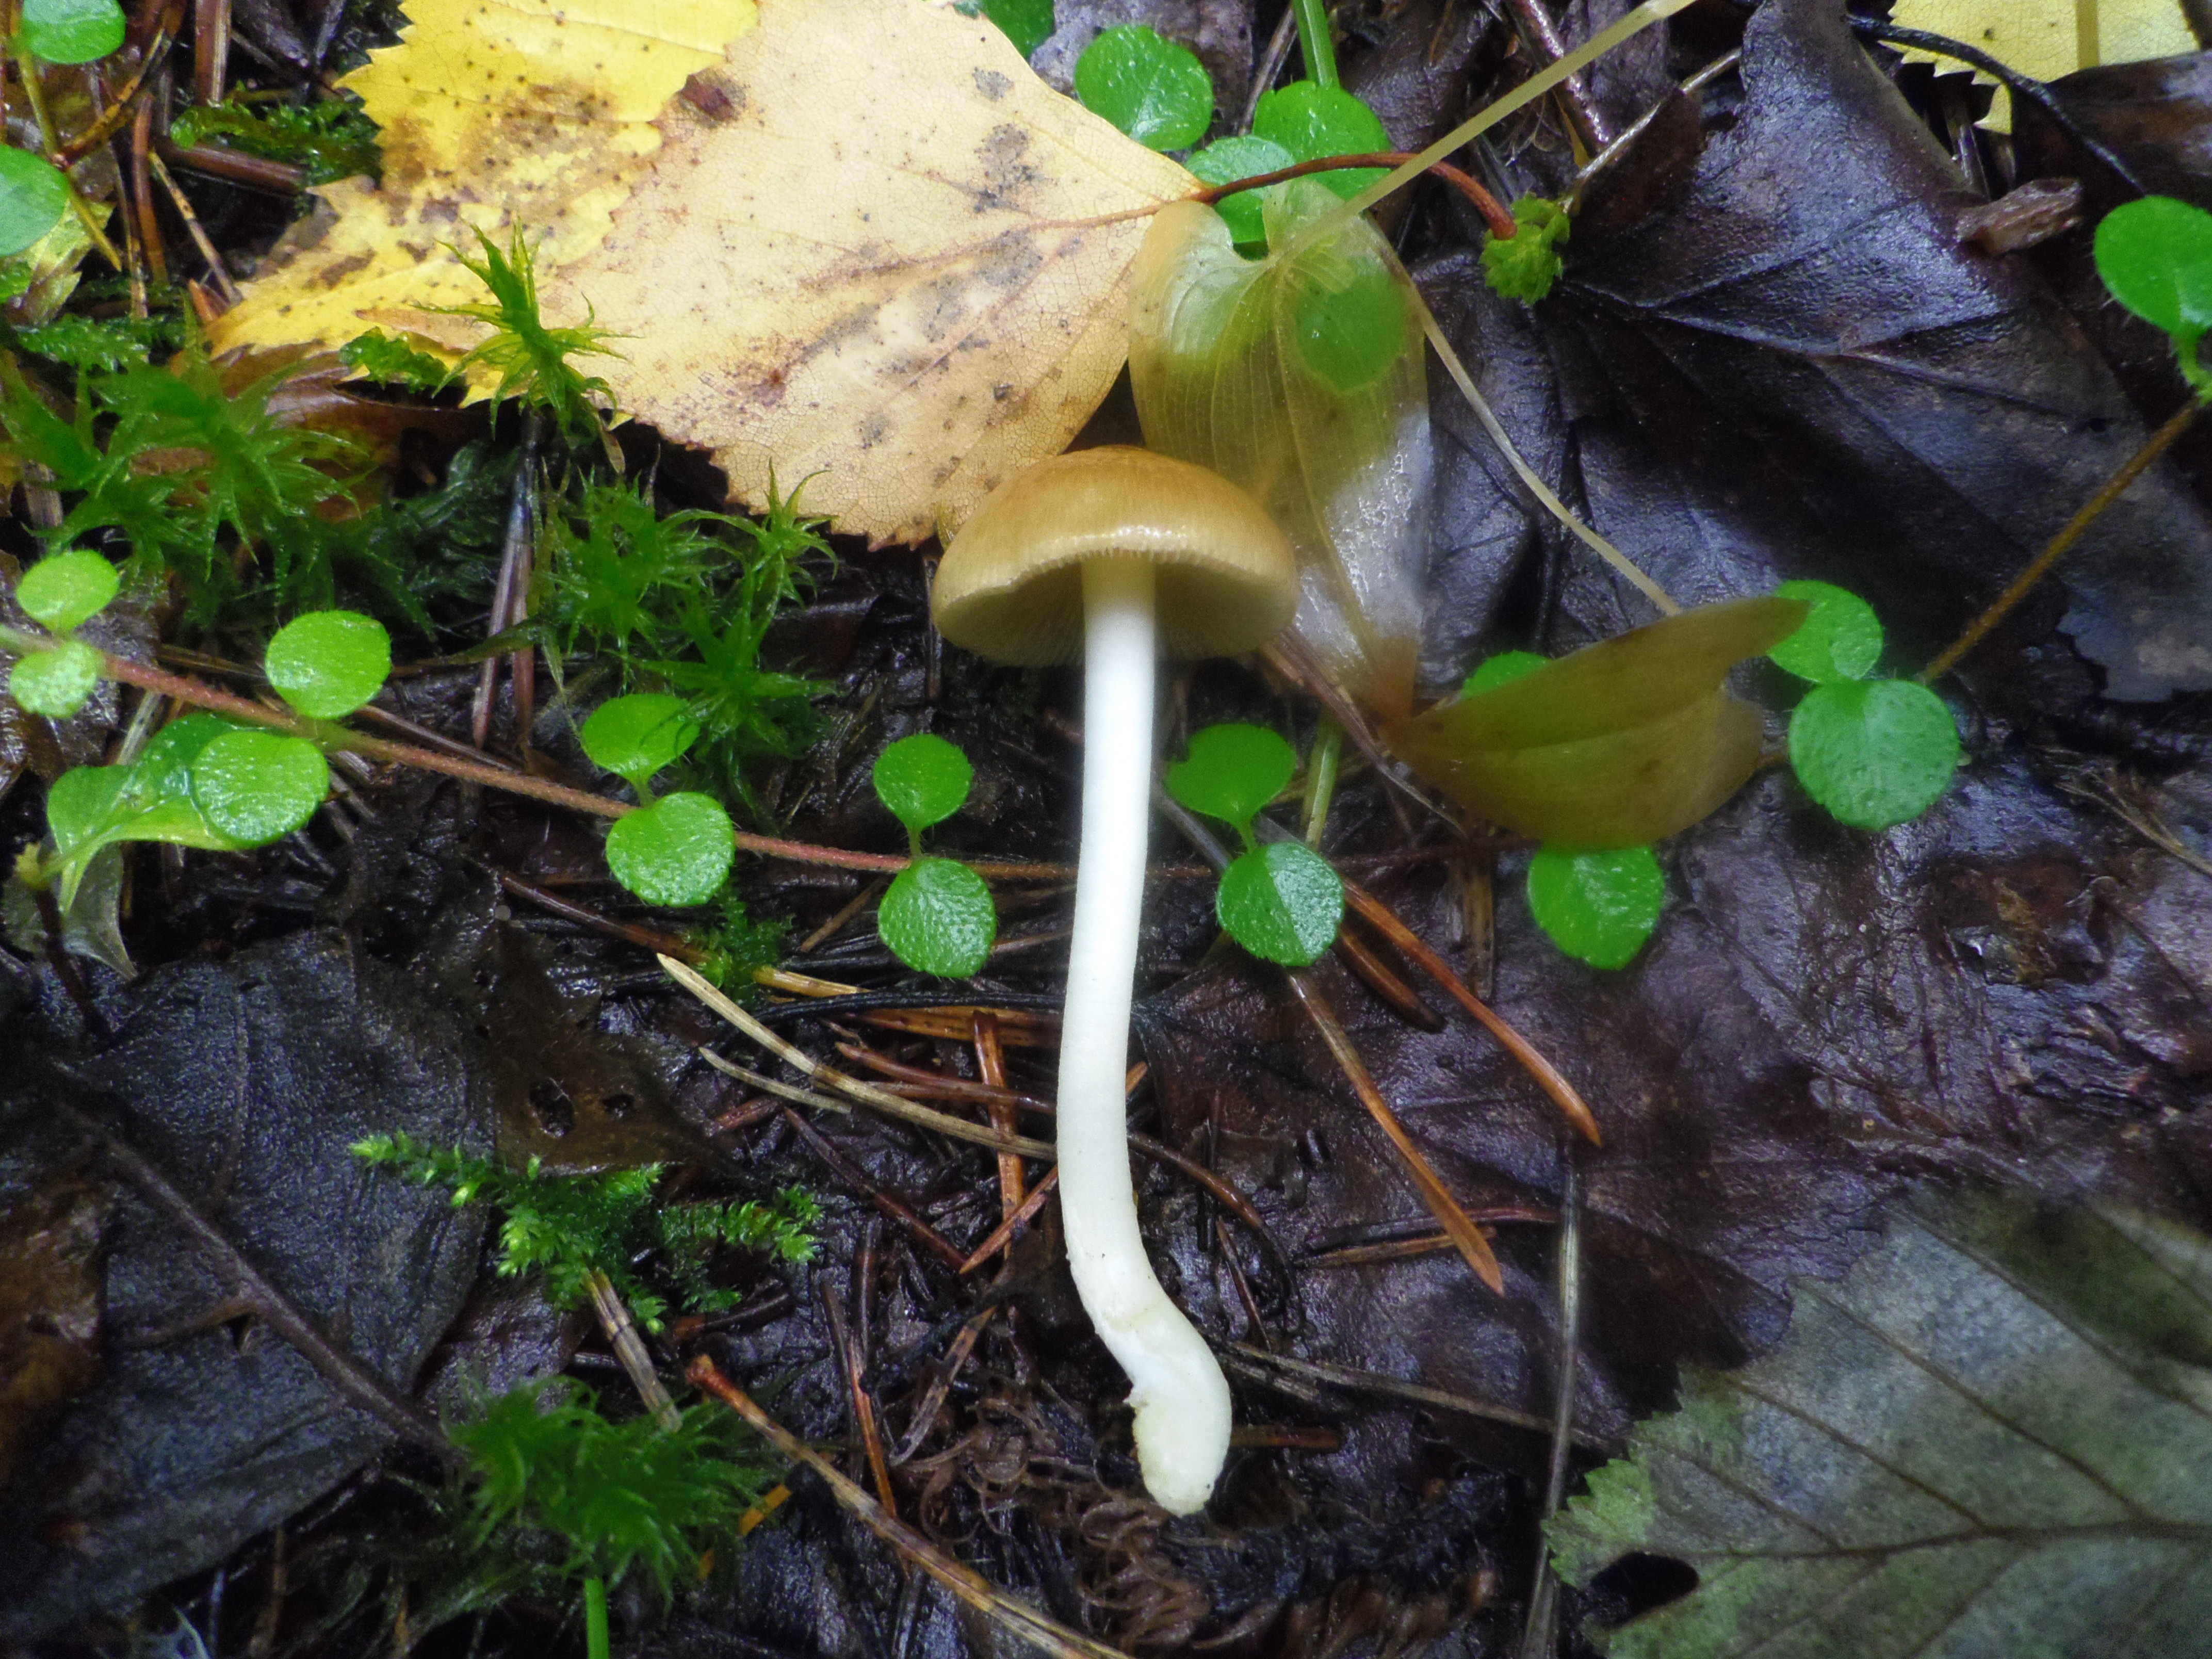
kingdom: Fungi
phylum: Basidiomycota
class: Agaricomycetes
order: Agaricales
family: Inocybaceae
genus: Inocybe
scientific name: Inocybe mixtilis
